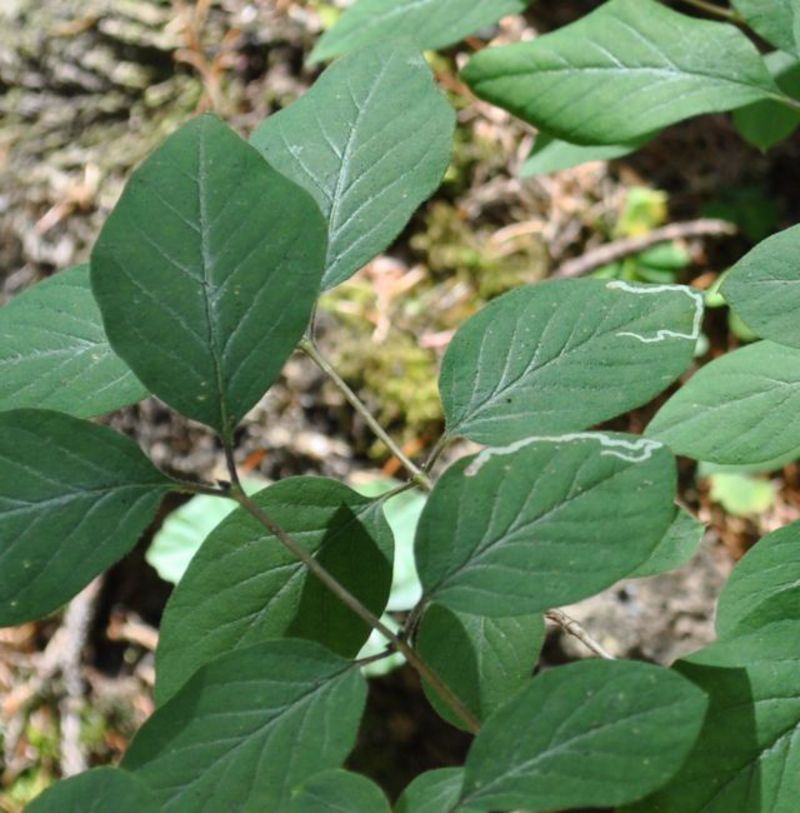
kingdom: Animalia
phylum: Arthropoda
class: Insecta
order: Diptera
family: Agromyzidae
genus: Aulagromyza
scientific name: Aulagromyza luteoscutellata
